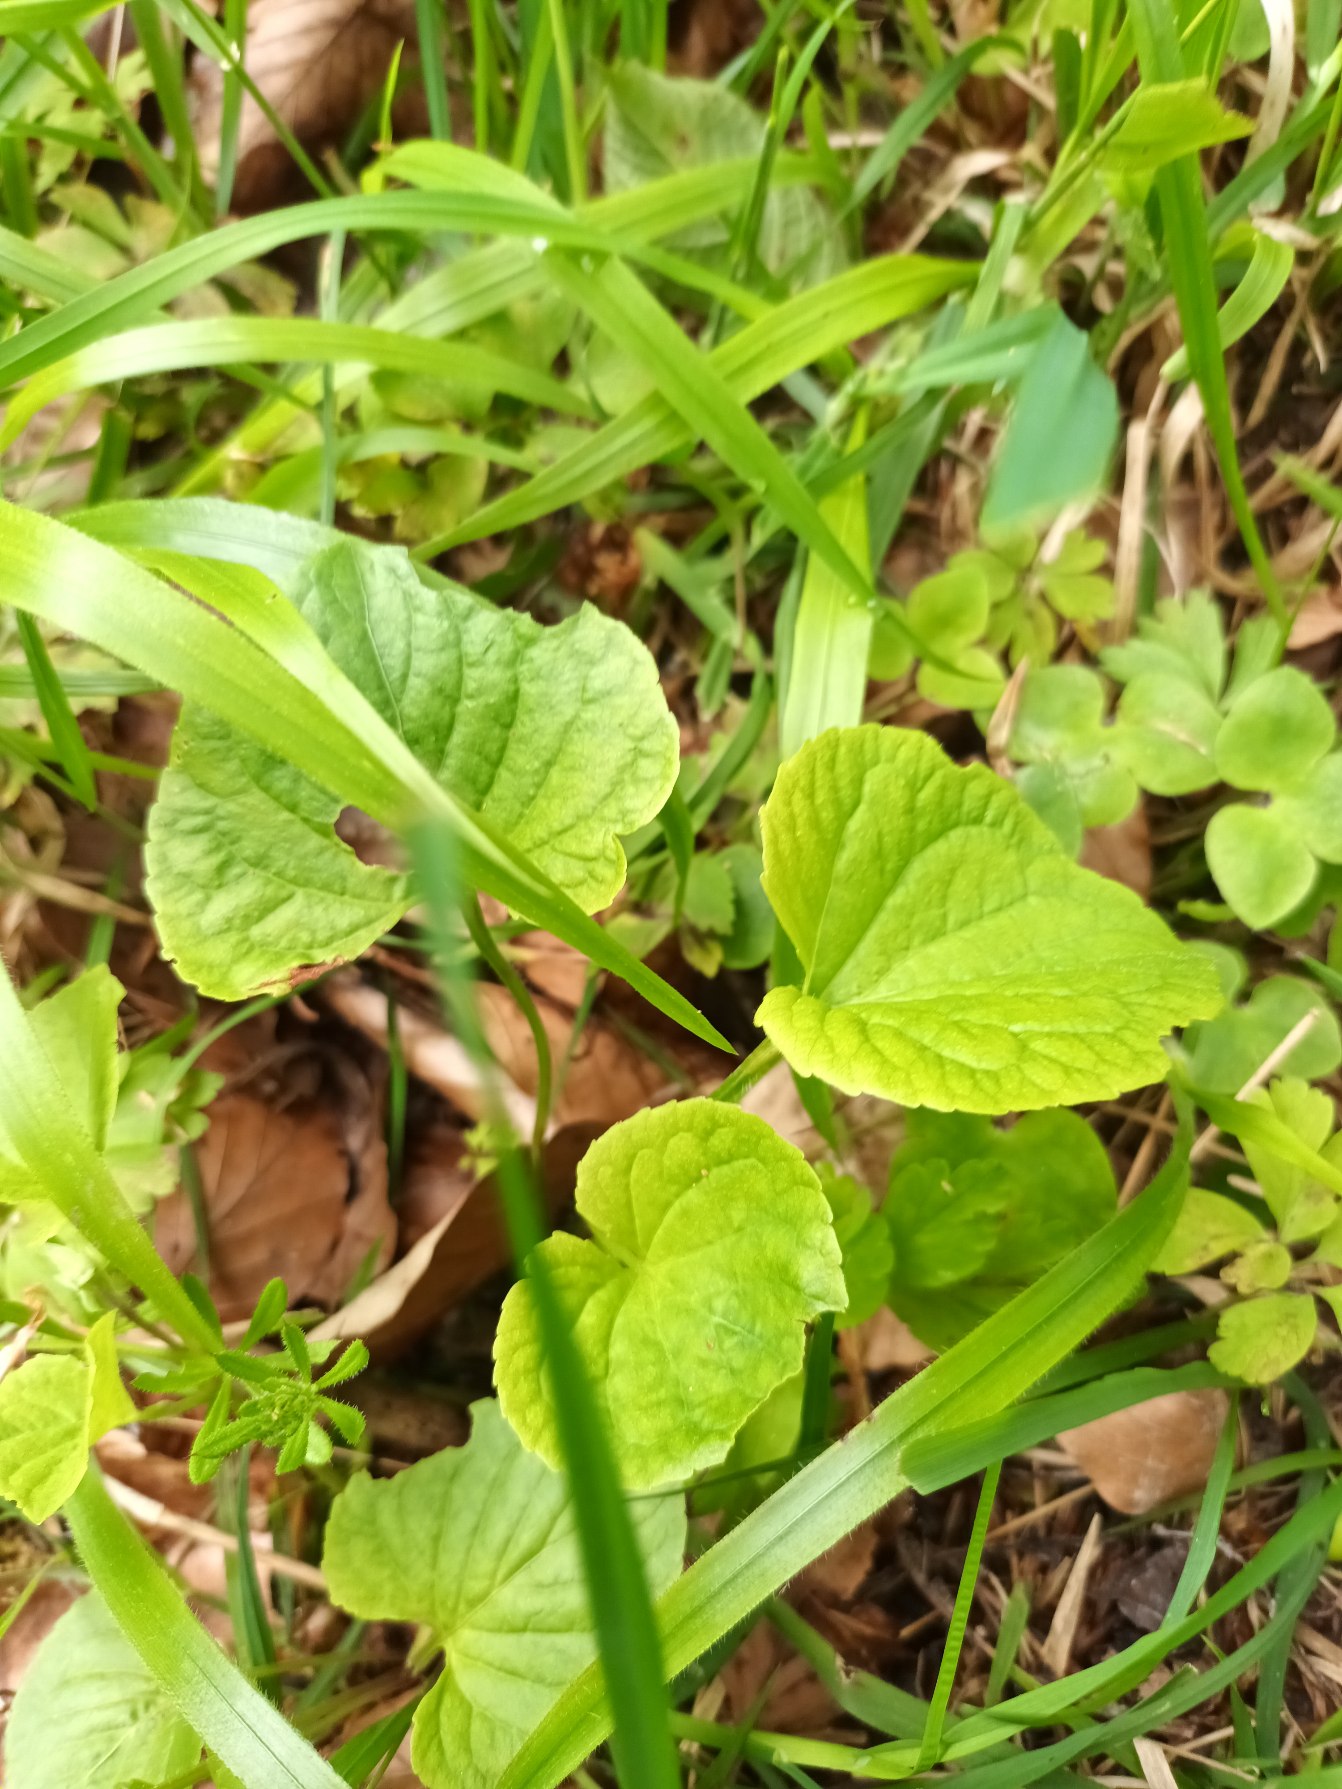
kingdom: Plantae
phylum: Tracheophyta
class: Magnoliopsida
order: Malpighiales
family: Violaceae
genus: Viola
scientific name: Viola mirabilis
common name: Forskelligblomstret viol
